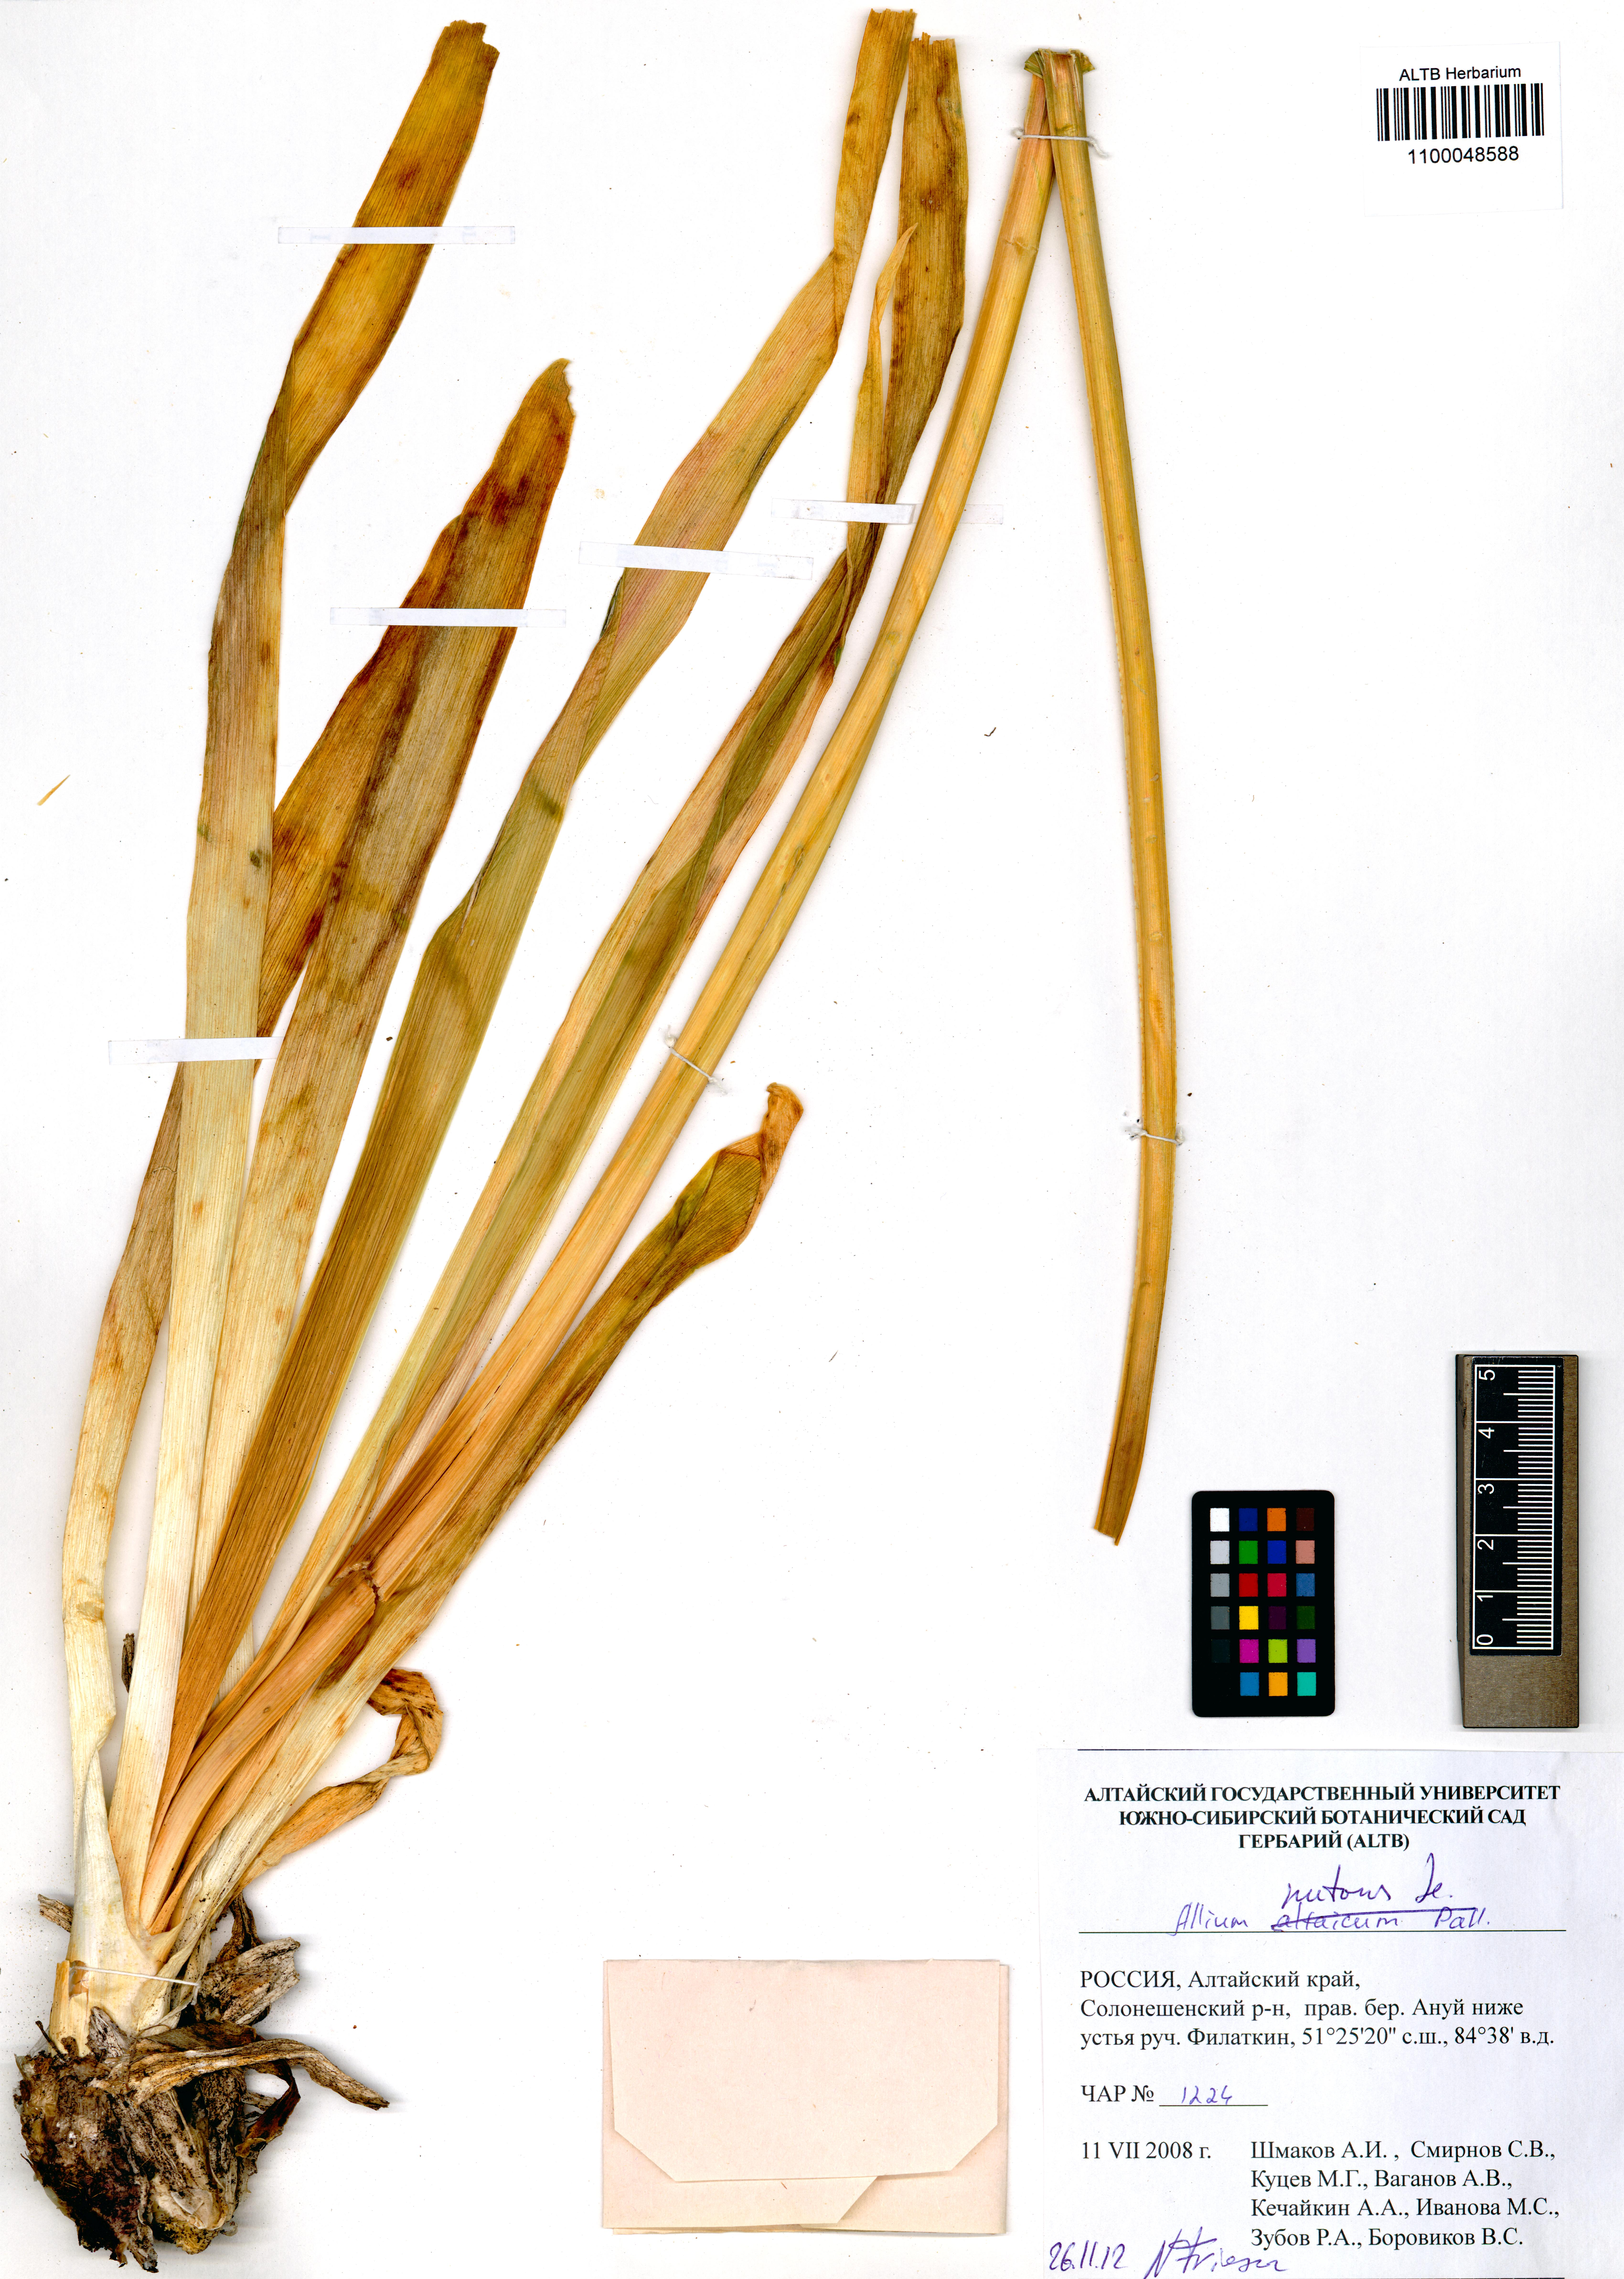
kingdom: Plantae
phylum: Tracheophyta
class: Liliopsida
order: Asparagales
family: Amaryllidaceae
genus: Allium
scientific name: Allium nutans
